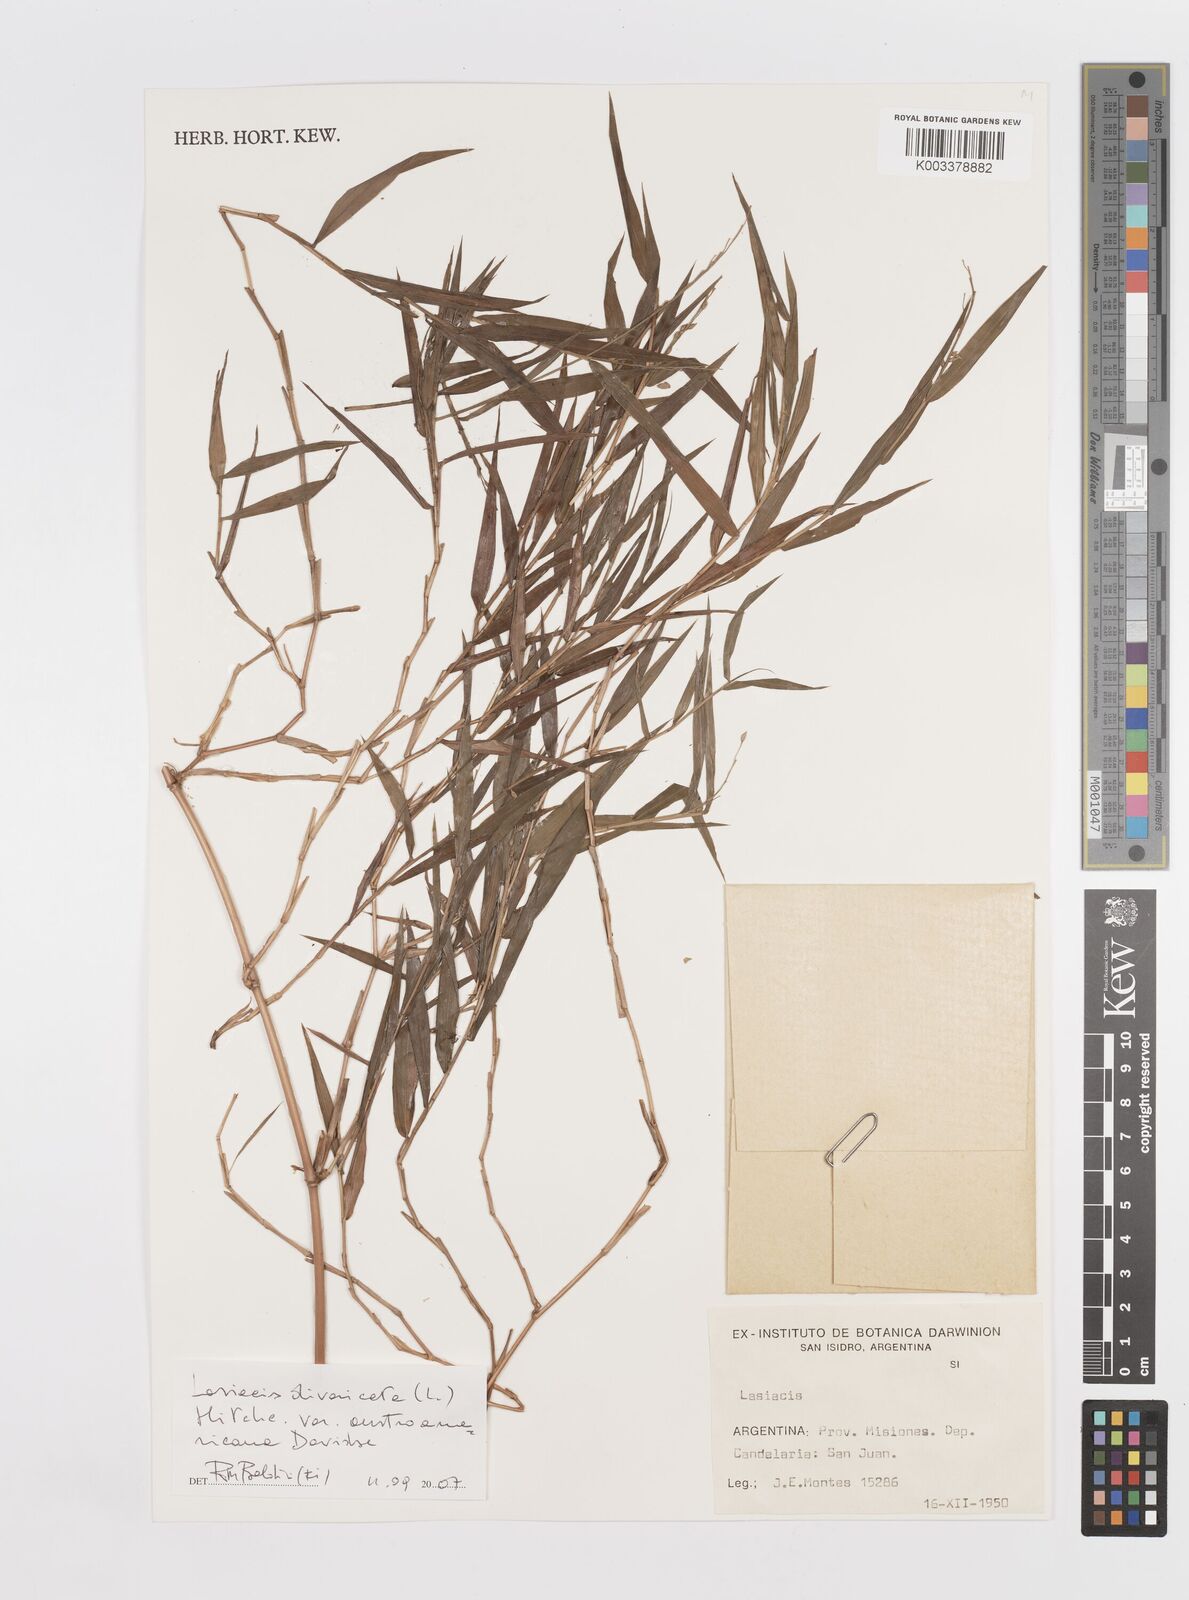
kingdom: Plantae
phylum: Tracheophyta
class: Liliopsida
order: Poales
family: Poaceae
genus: Lasiacis
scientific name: Lasiacis divaricata
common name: Smallcane
